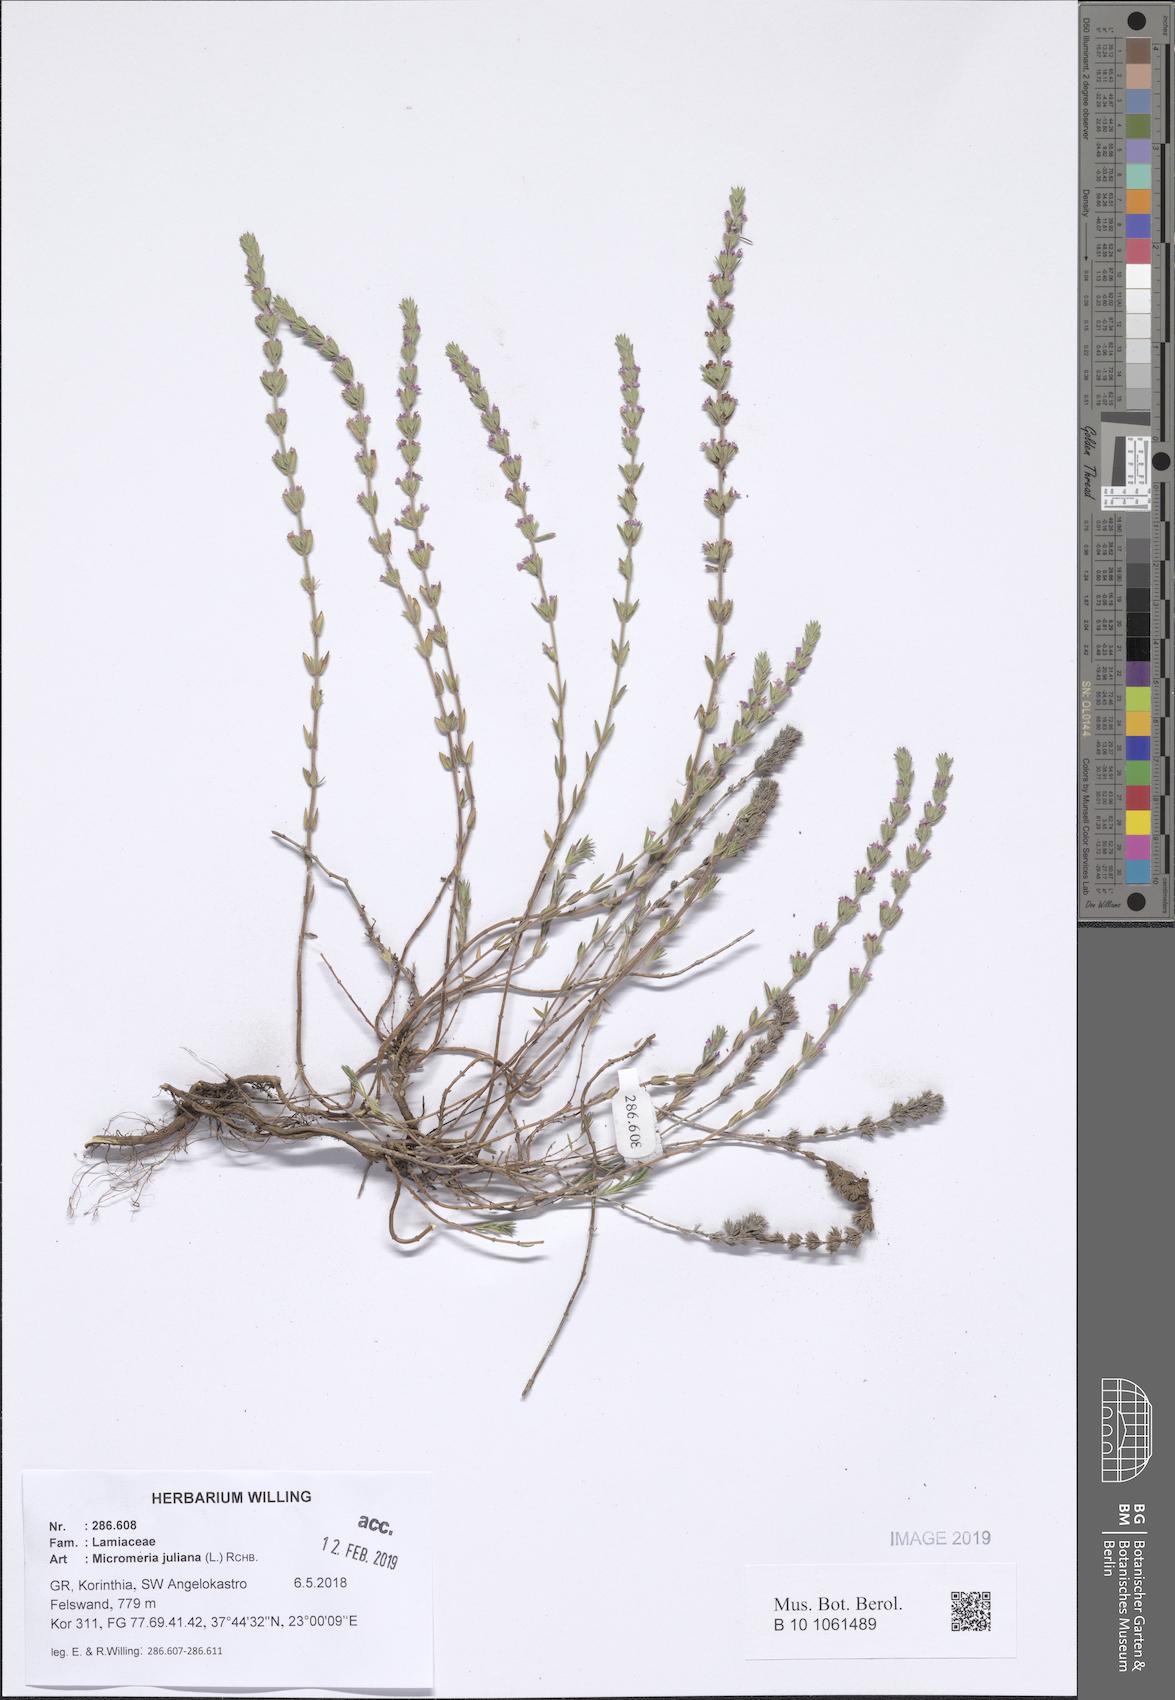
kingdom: Plantae
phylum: Tracheophyta
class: Magnoliopsida
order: Lamiales
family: Lamiaceae
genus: Micromeria
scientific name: Micromeria juliana
